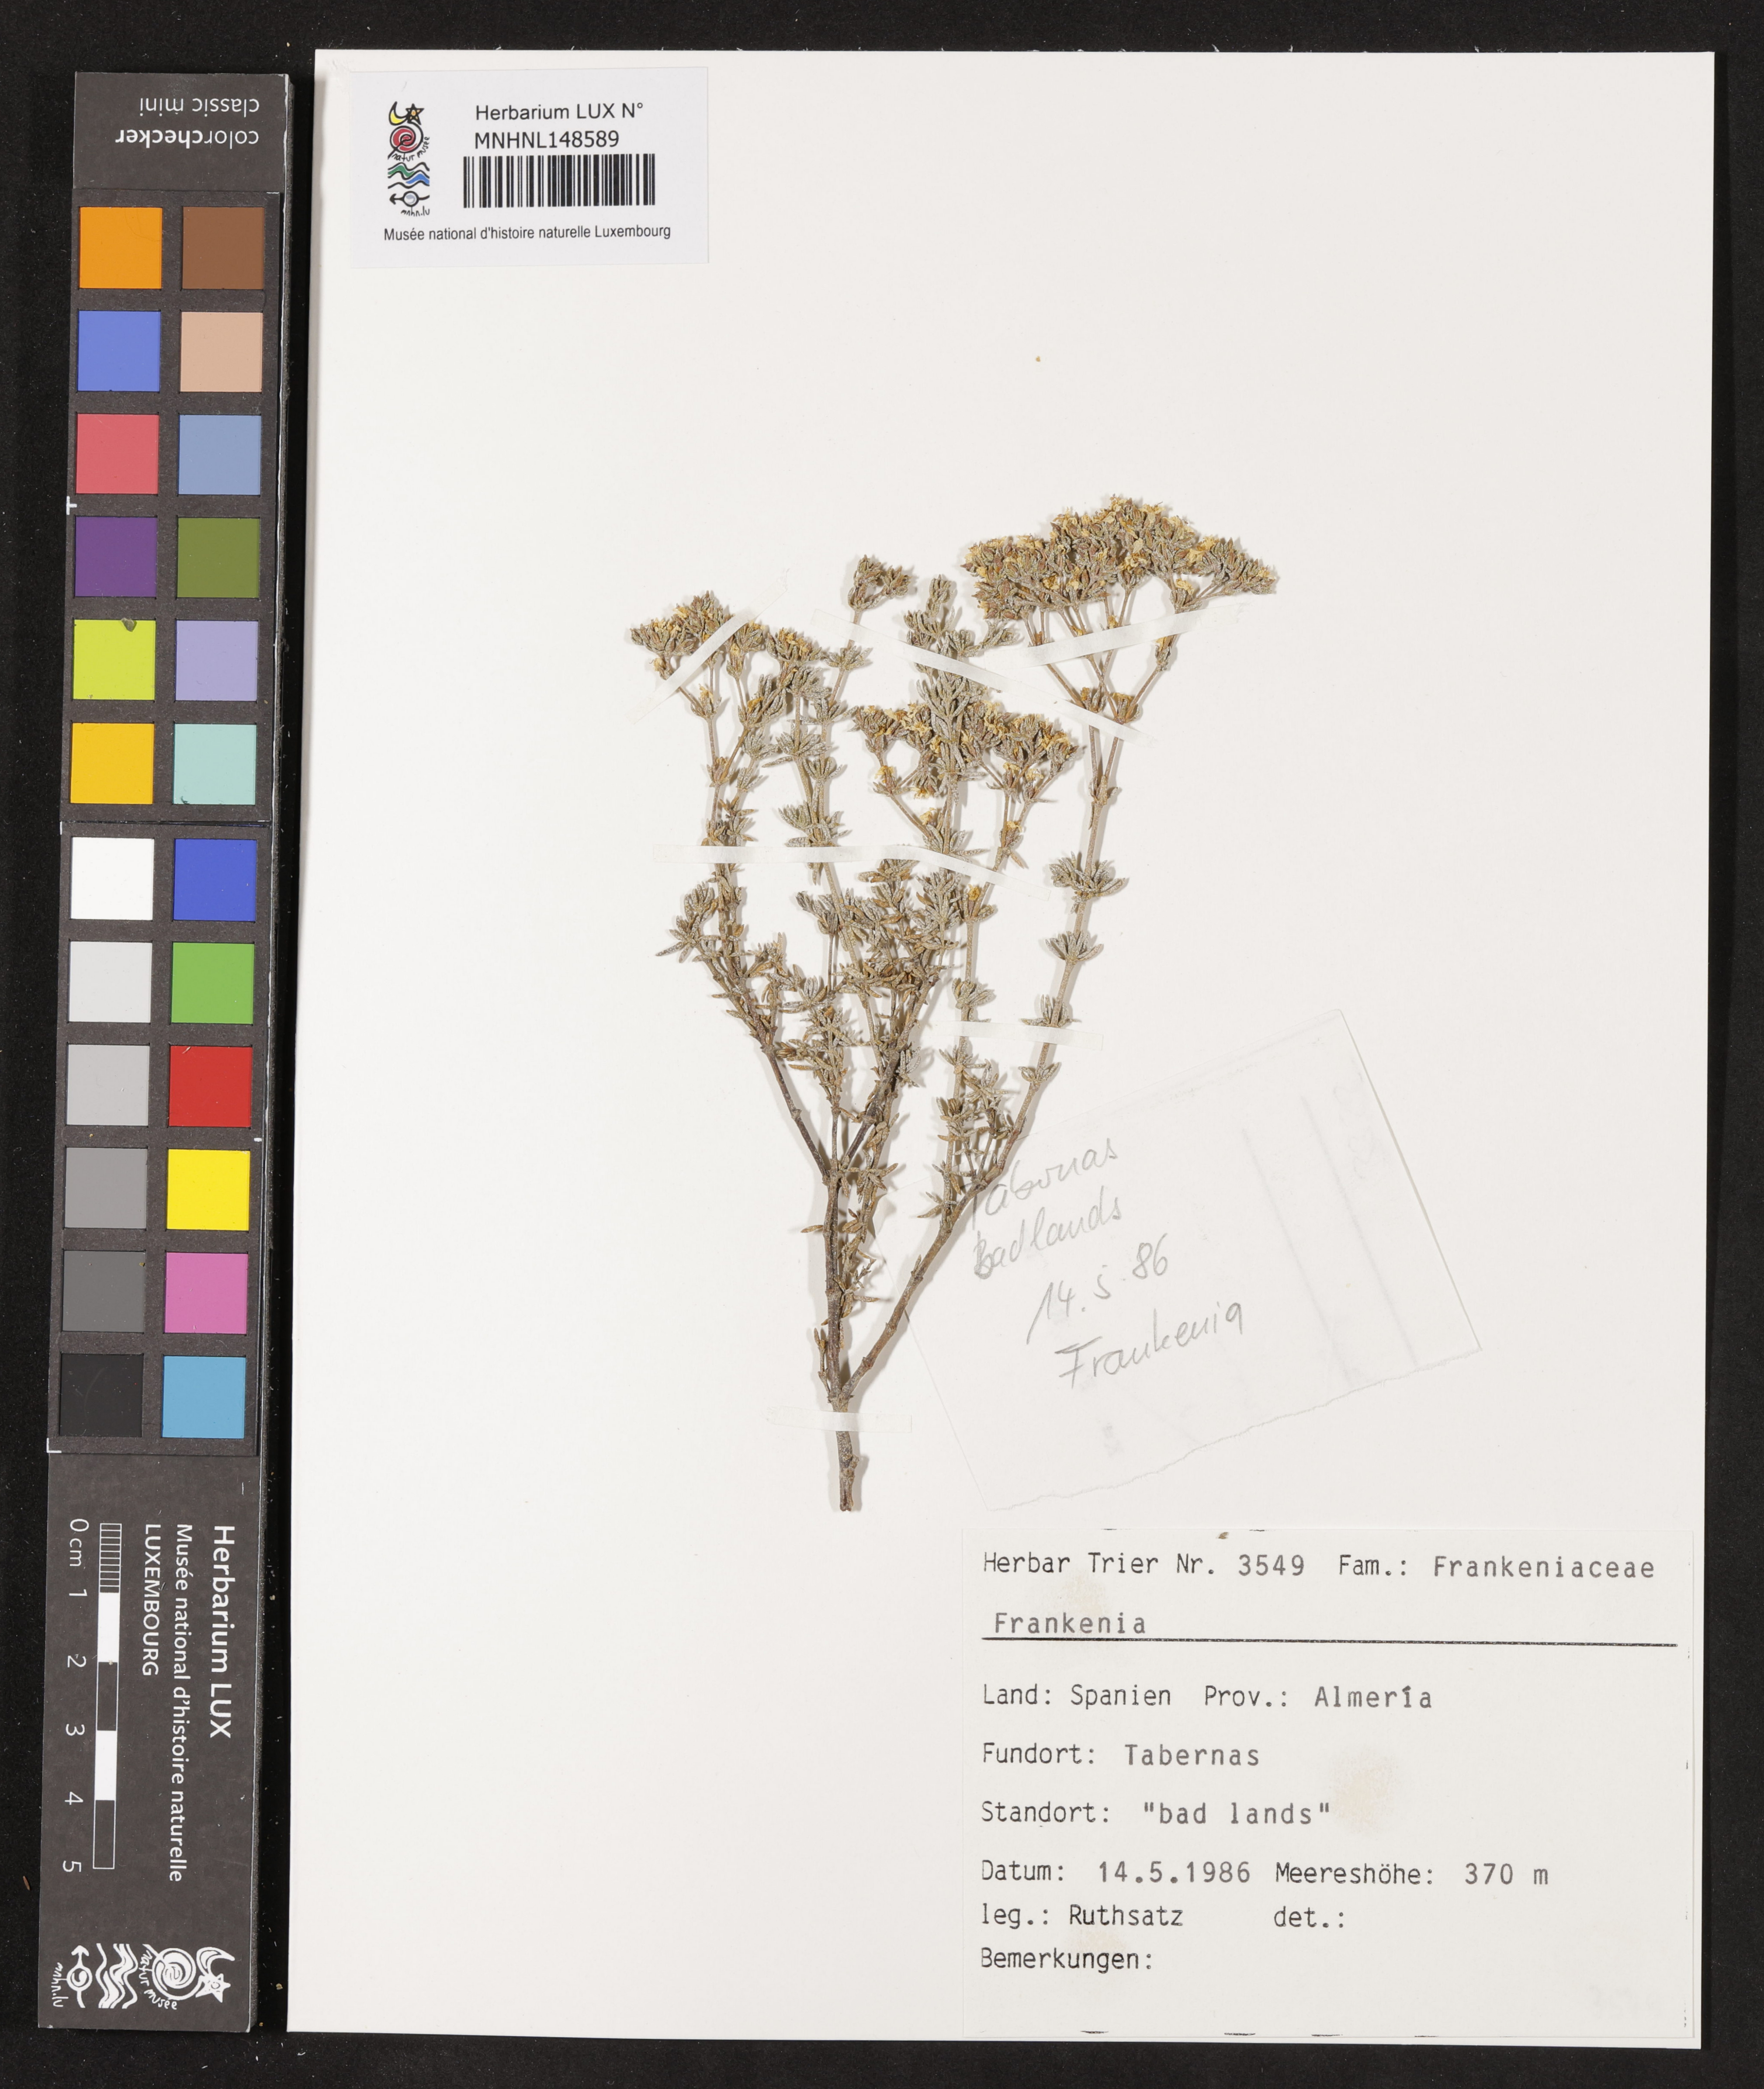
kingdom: Plantae
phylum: Tracheophyta
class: Magnoliopsida
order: Caryophyllales
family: Frankeniaceae
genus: Frankenia
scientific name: Frankenia
